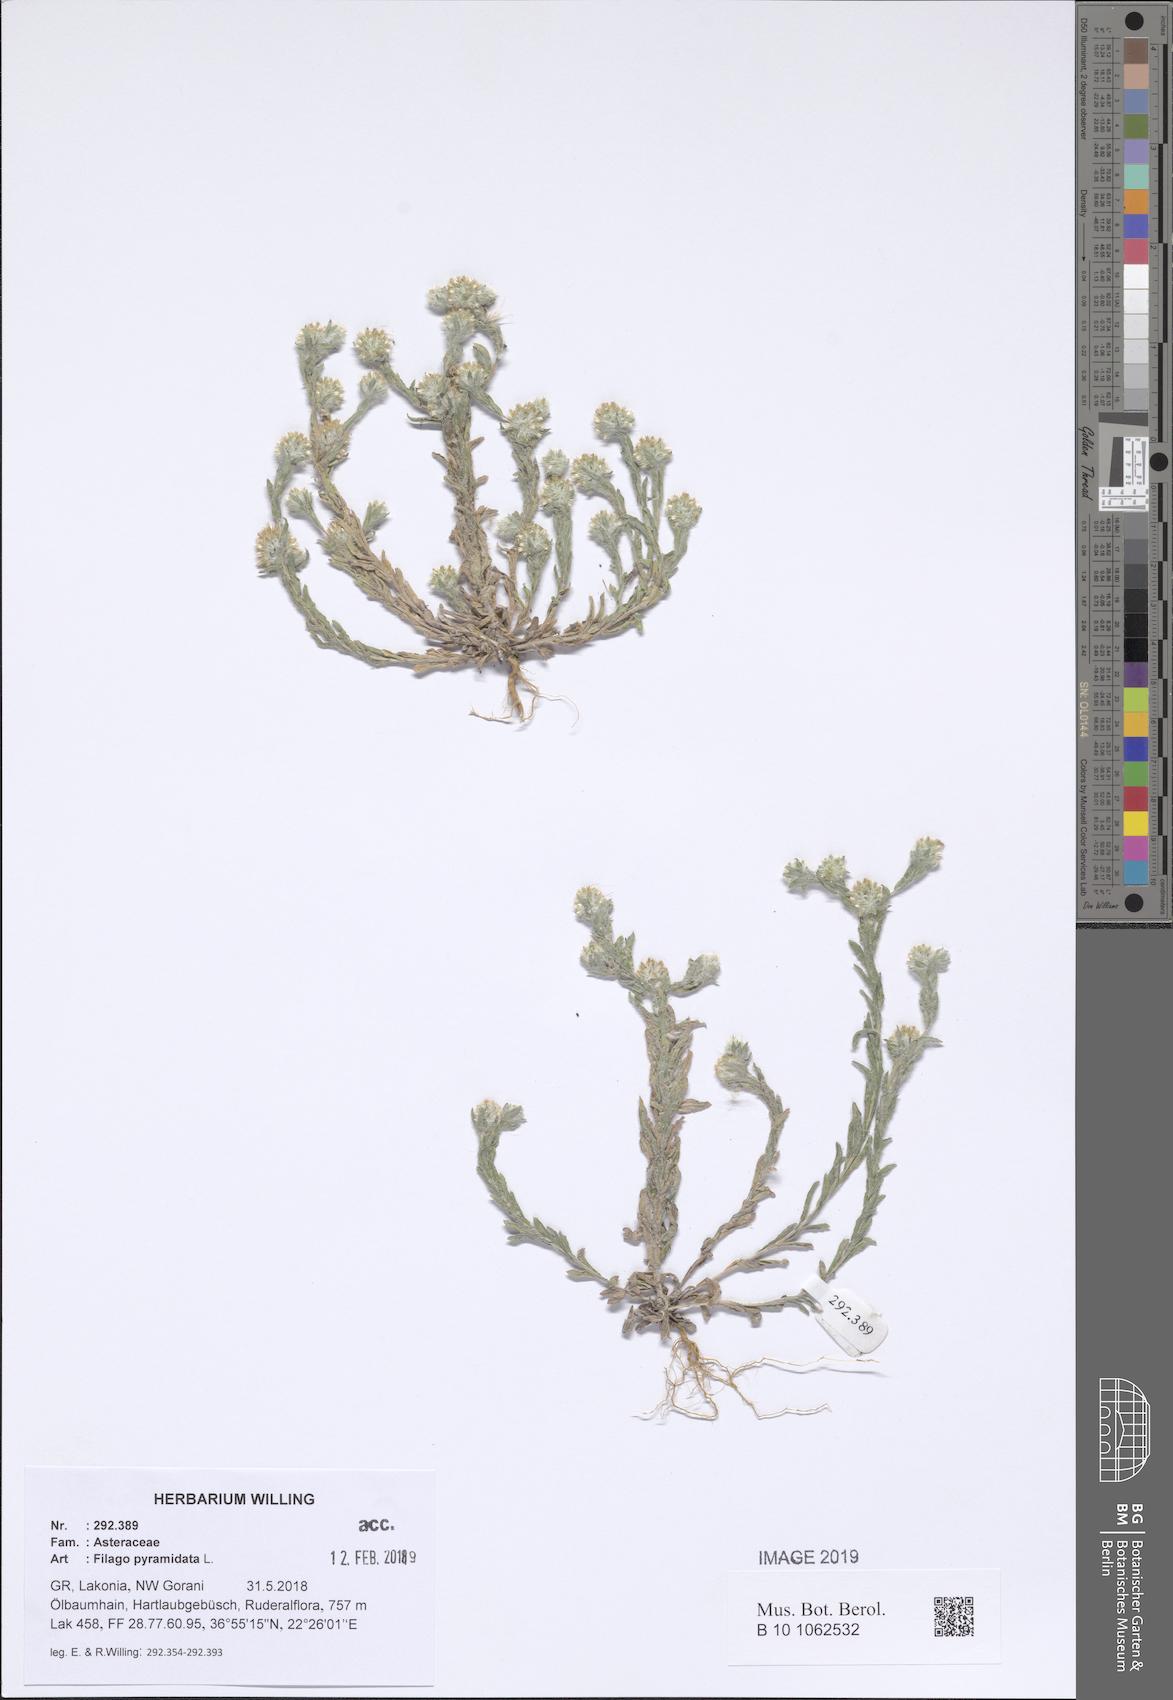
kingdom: Plantae
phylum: Tracheophyta
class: Magnoliopsida
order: Asterales
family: Asteraceae
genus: Filago
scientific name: Filago pyramidata
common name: Broad-leaved cudweed
